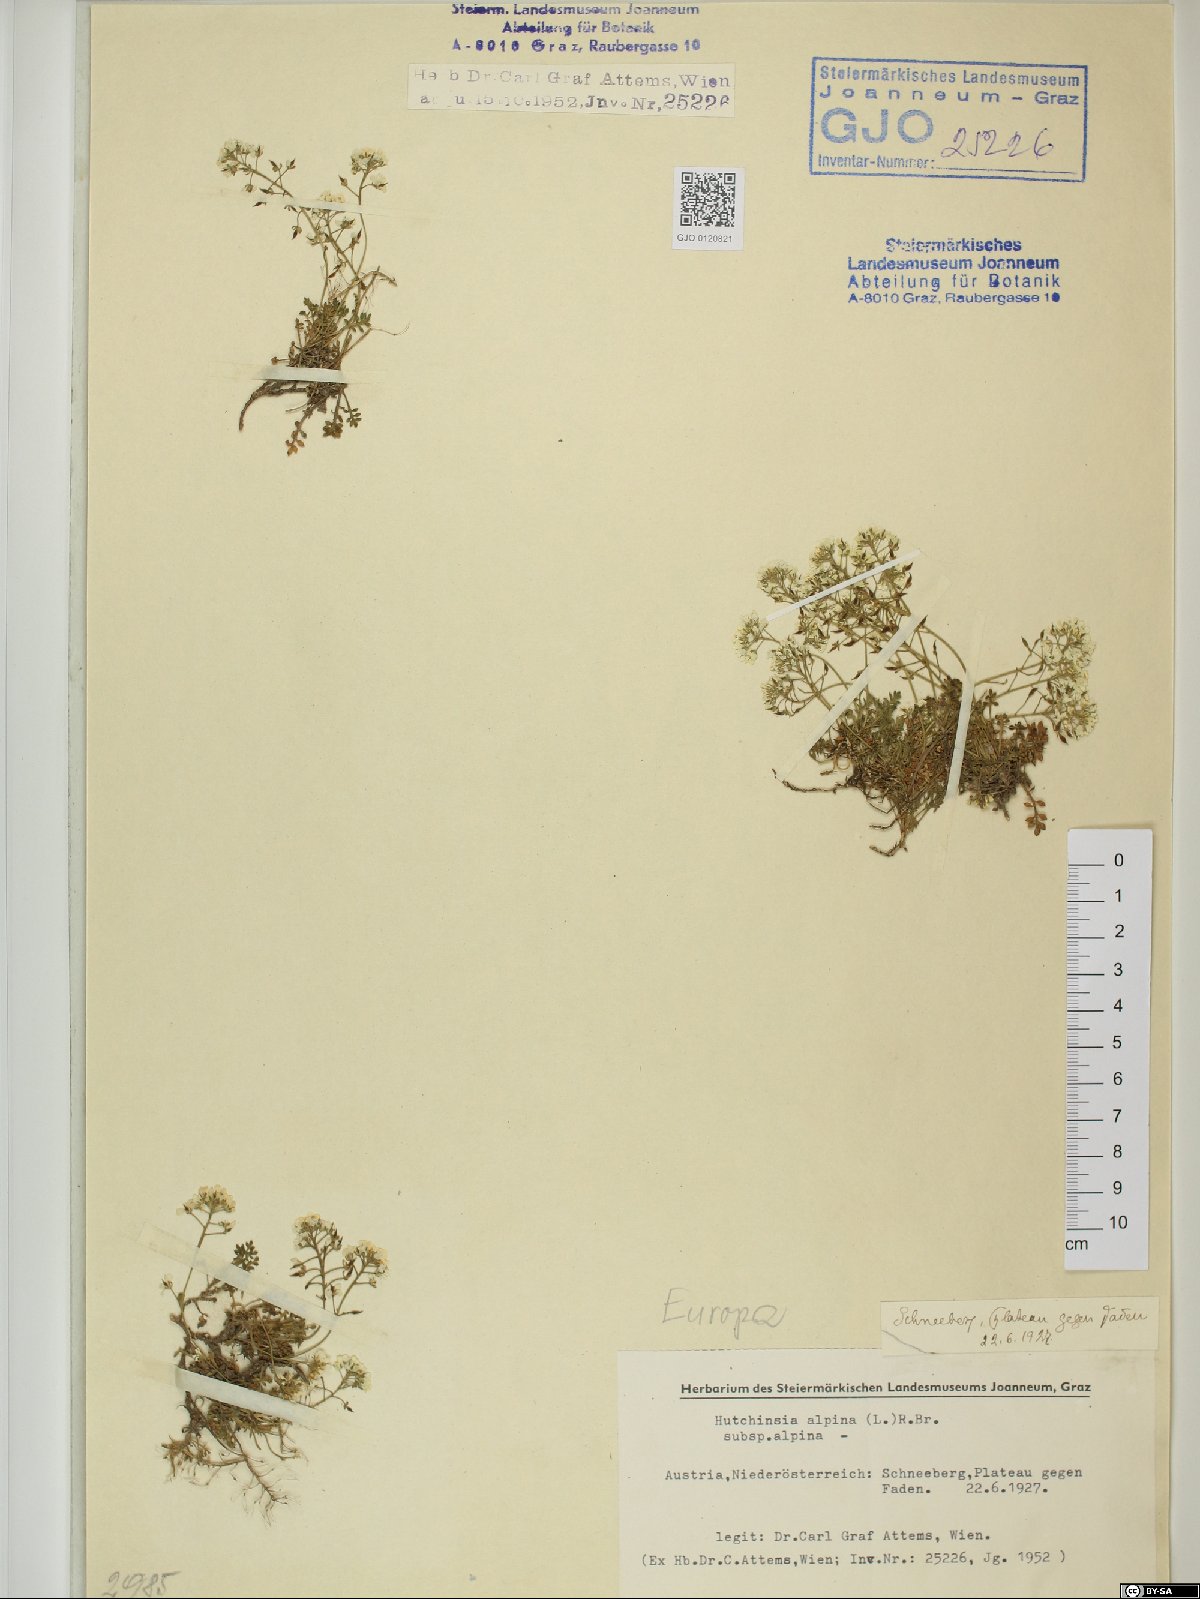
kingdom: Plantae
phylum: Tracheophyta
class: Magnoliopsida
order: Brassicales
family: Brassicaceae
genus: Hornungia
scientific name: Hornungia alpina
